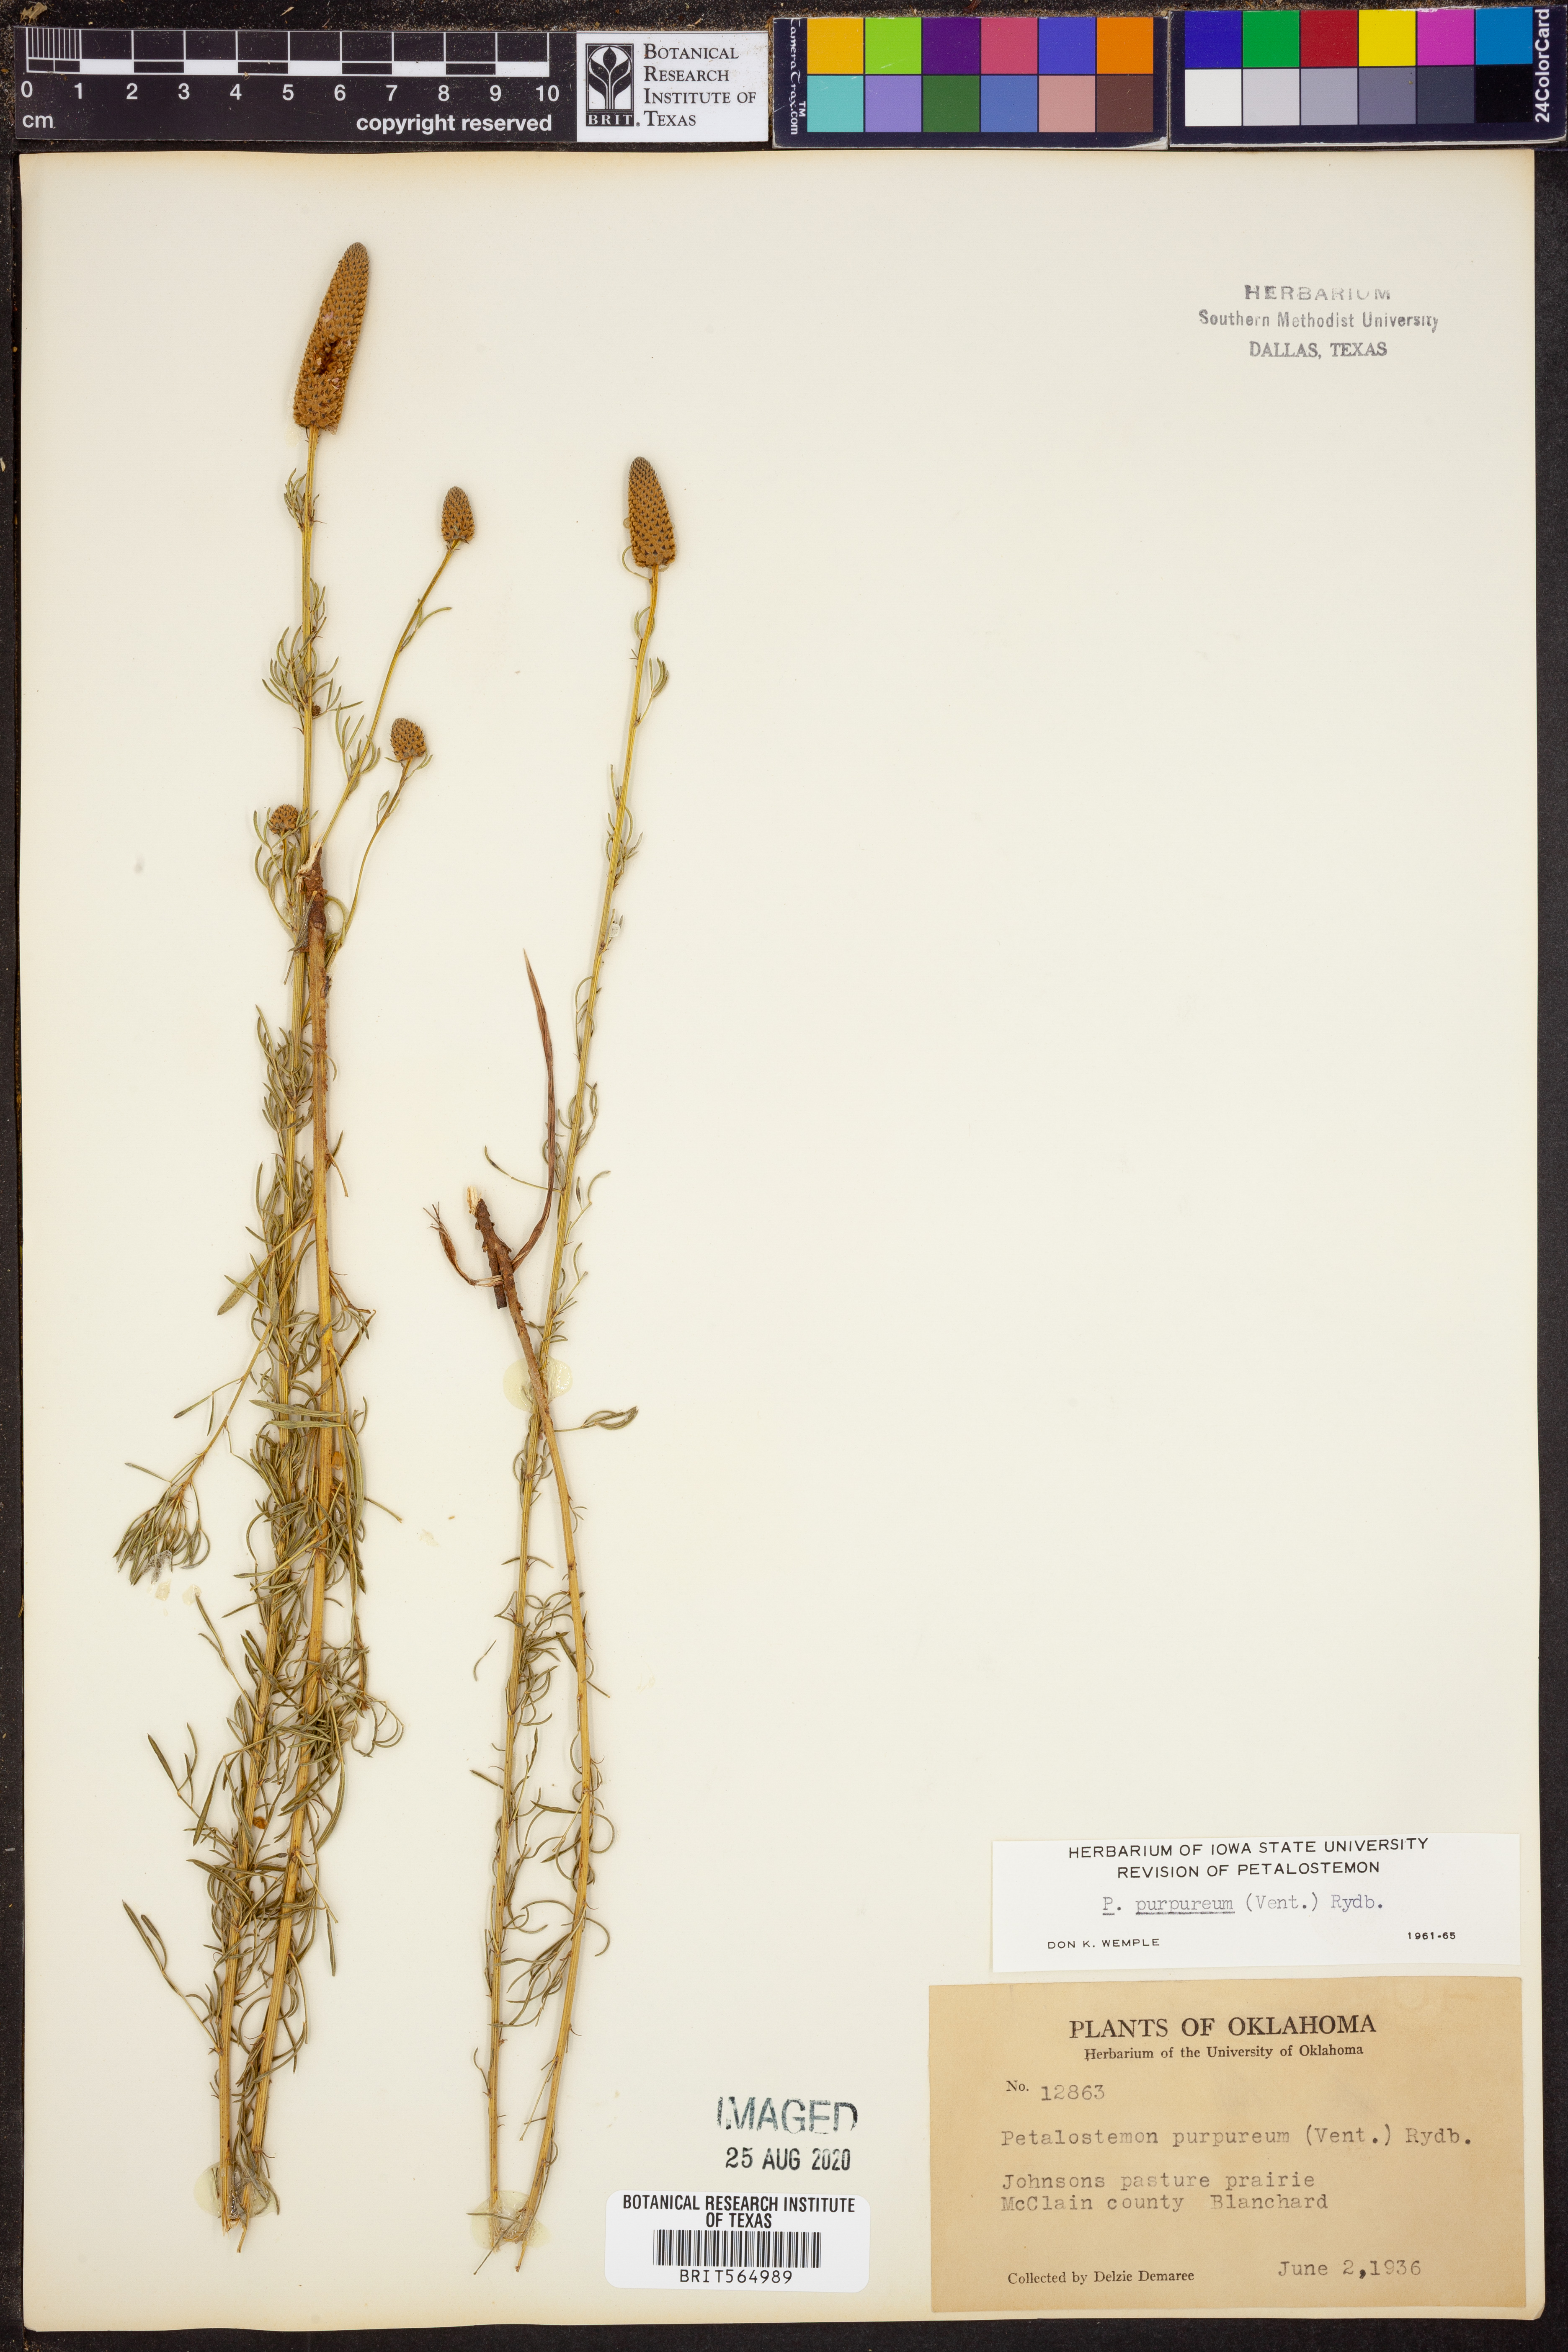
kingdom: Plantae
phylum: Tracheophyta
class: Magnoliopsida
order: Fabales
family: Fabaceae
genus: Dalea
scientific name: Dalea purpurea
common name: Purple prairie-clover
